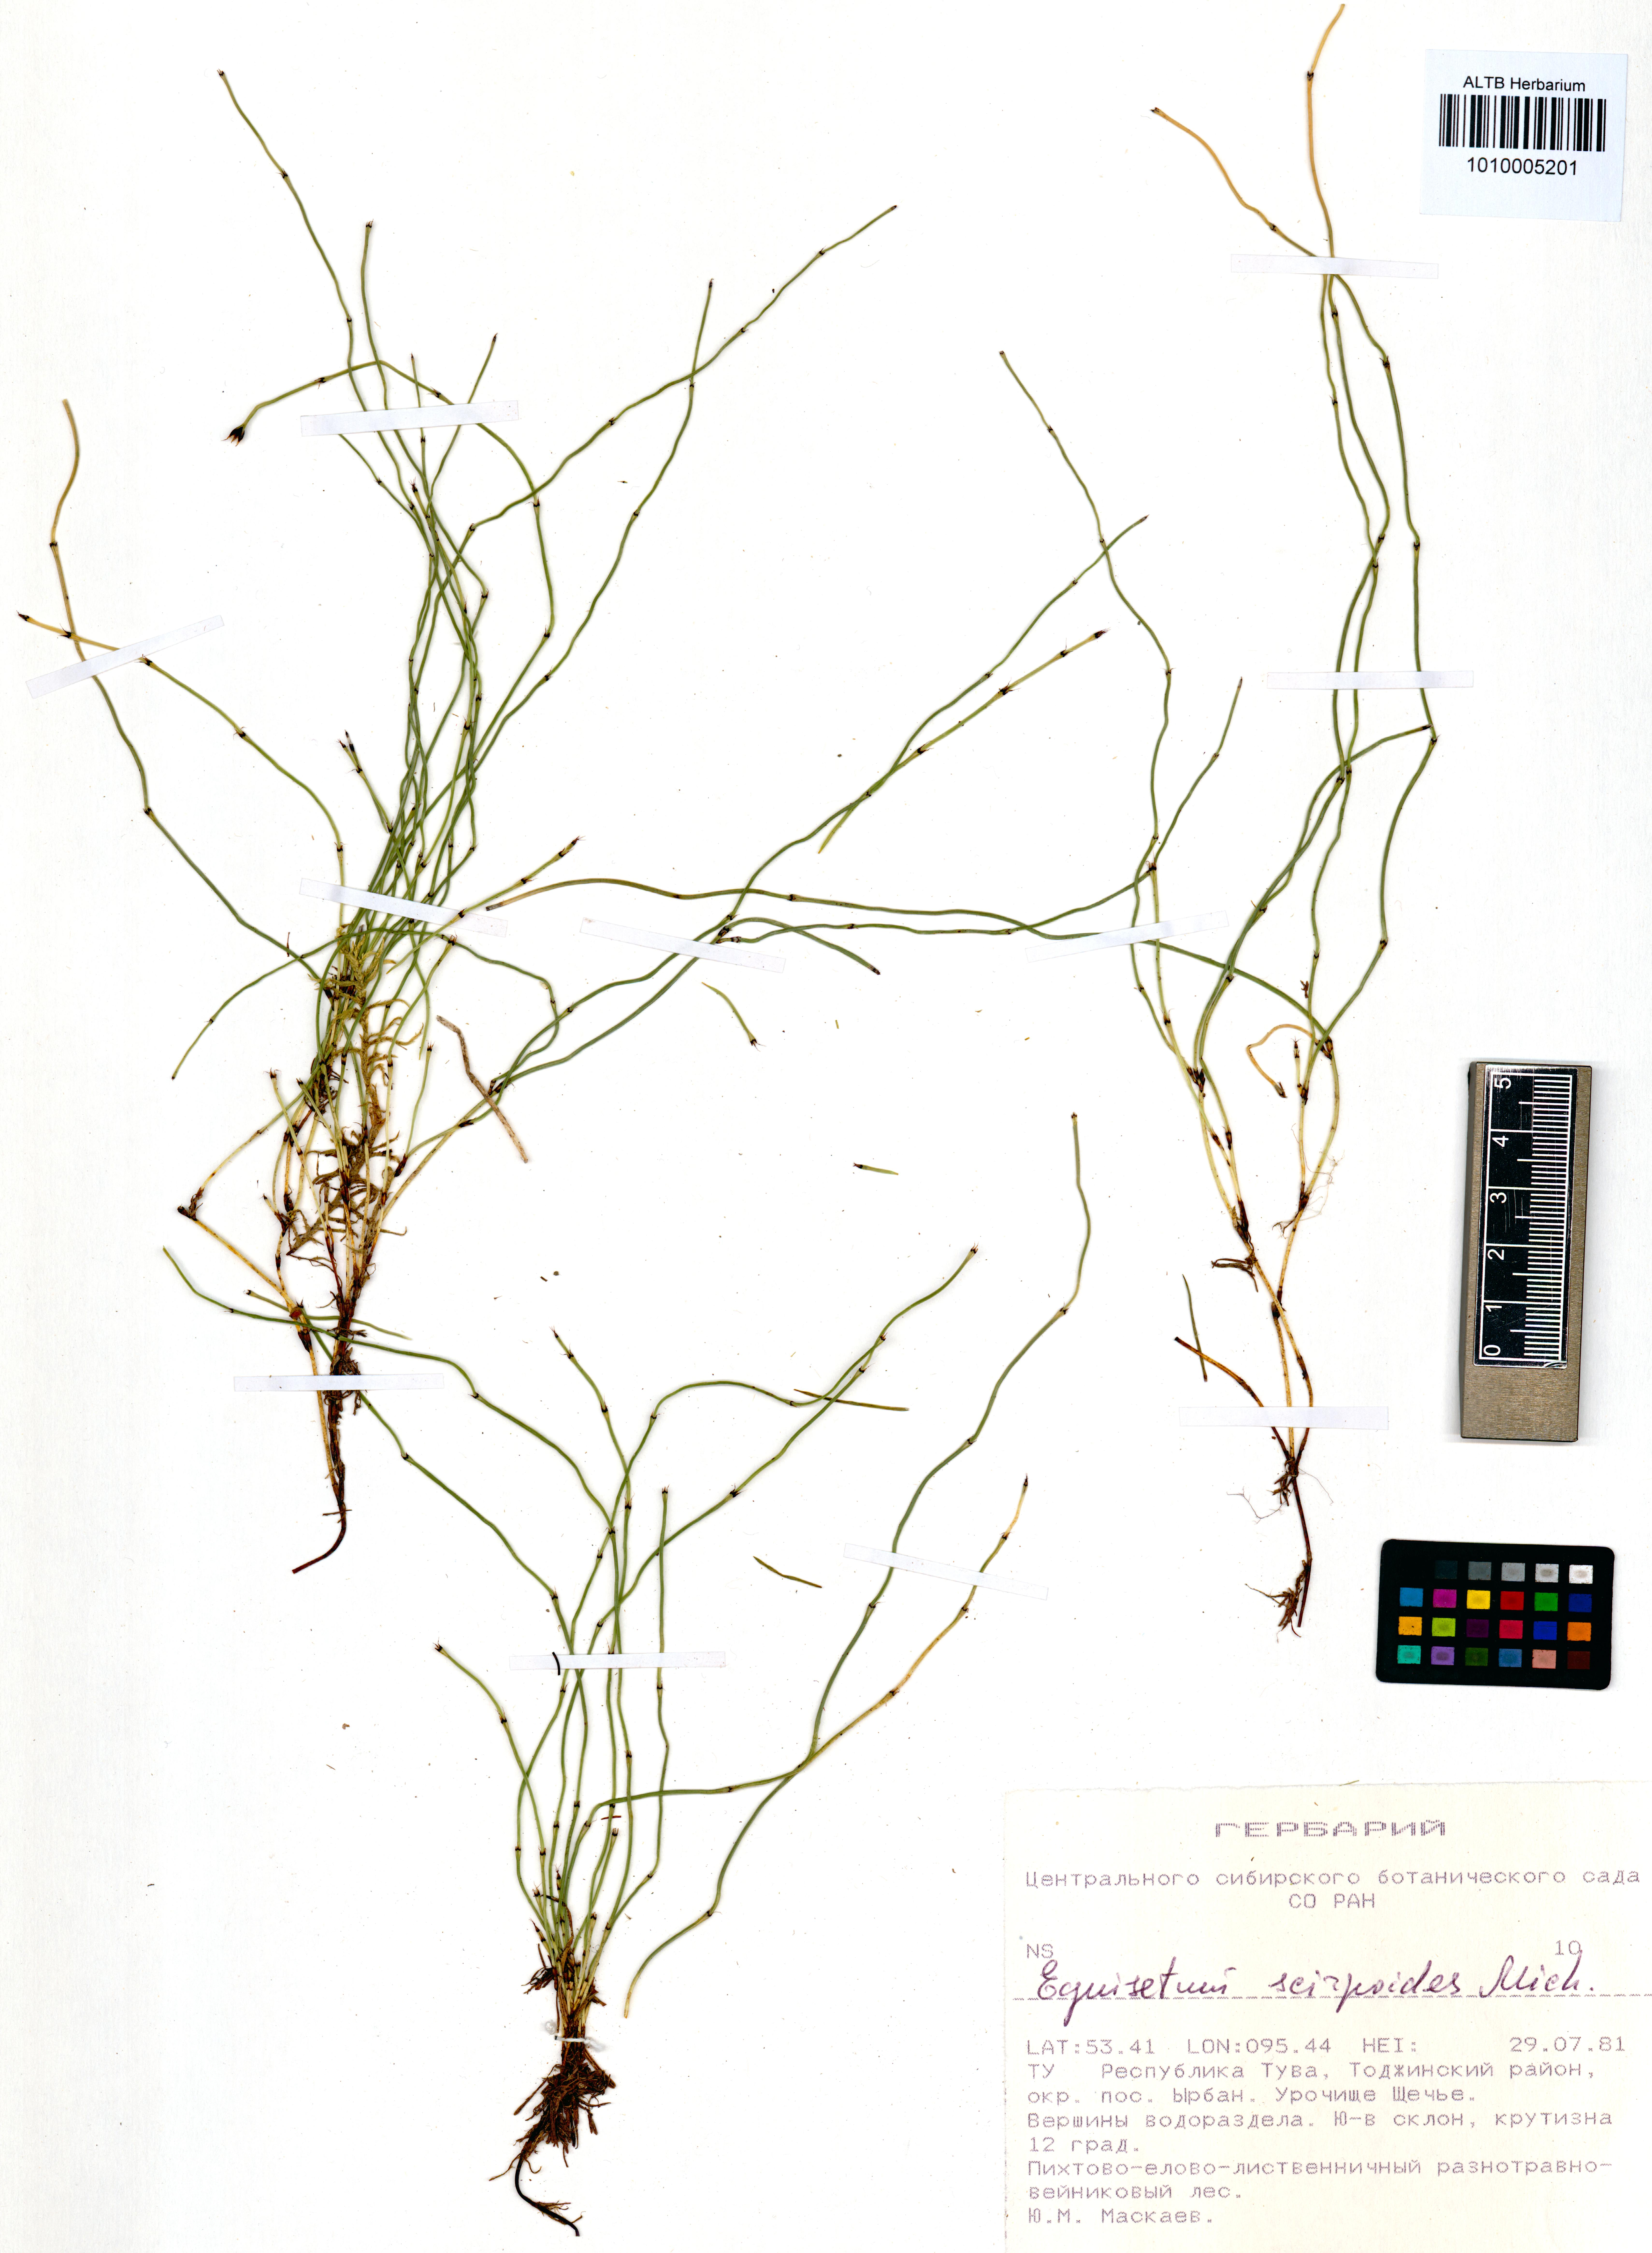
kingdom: Plantae
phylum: Tracheophyta
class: Polypodiopsida
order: Equisetales
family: Equisetaceae
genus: Equisetum
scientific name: Equisetum scirpoides
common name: Delicate horsetail
